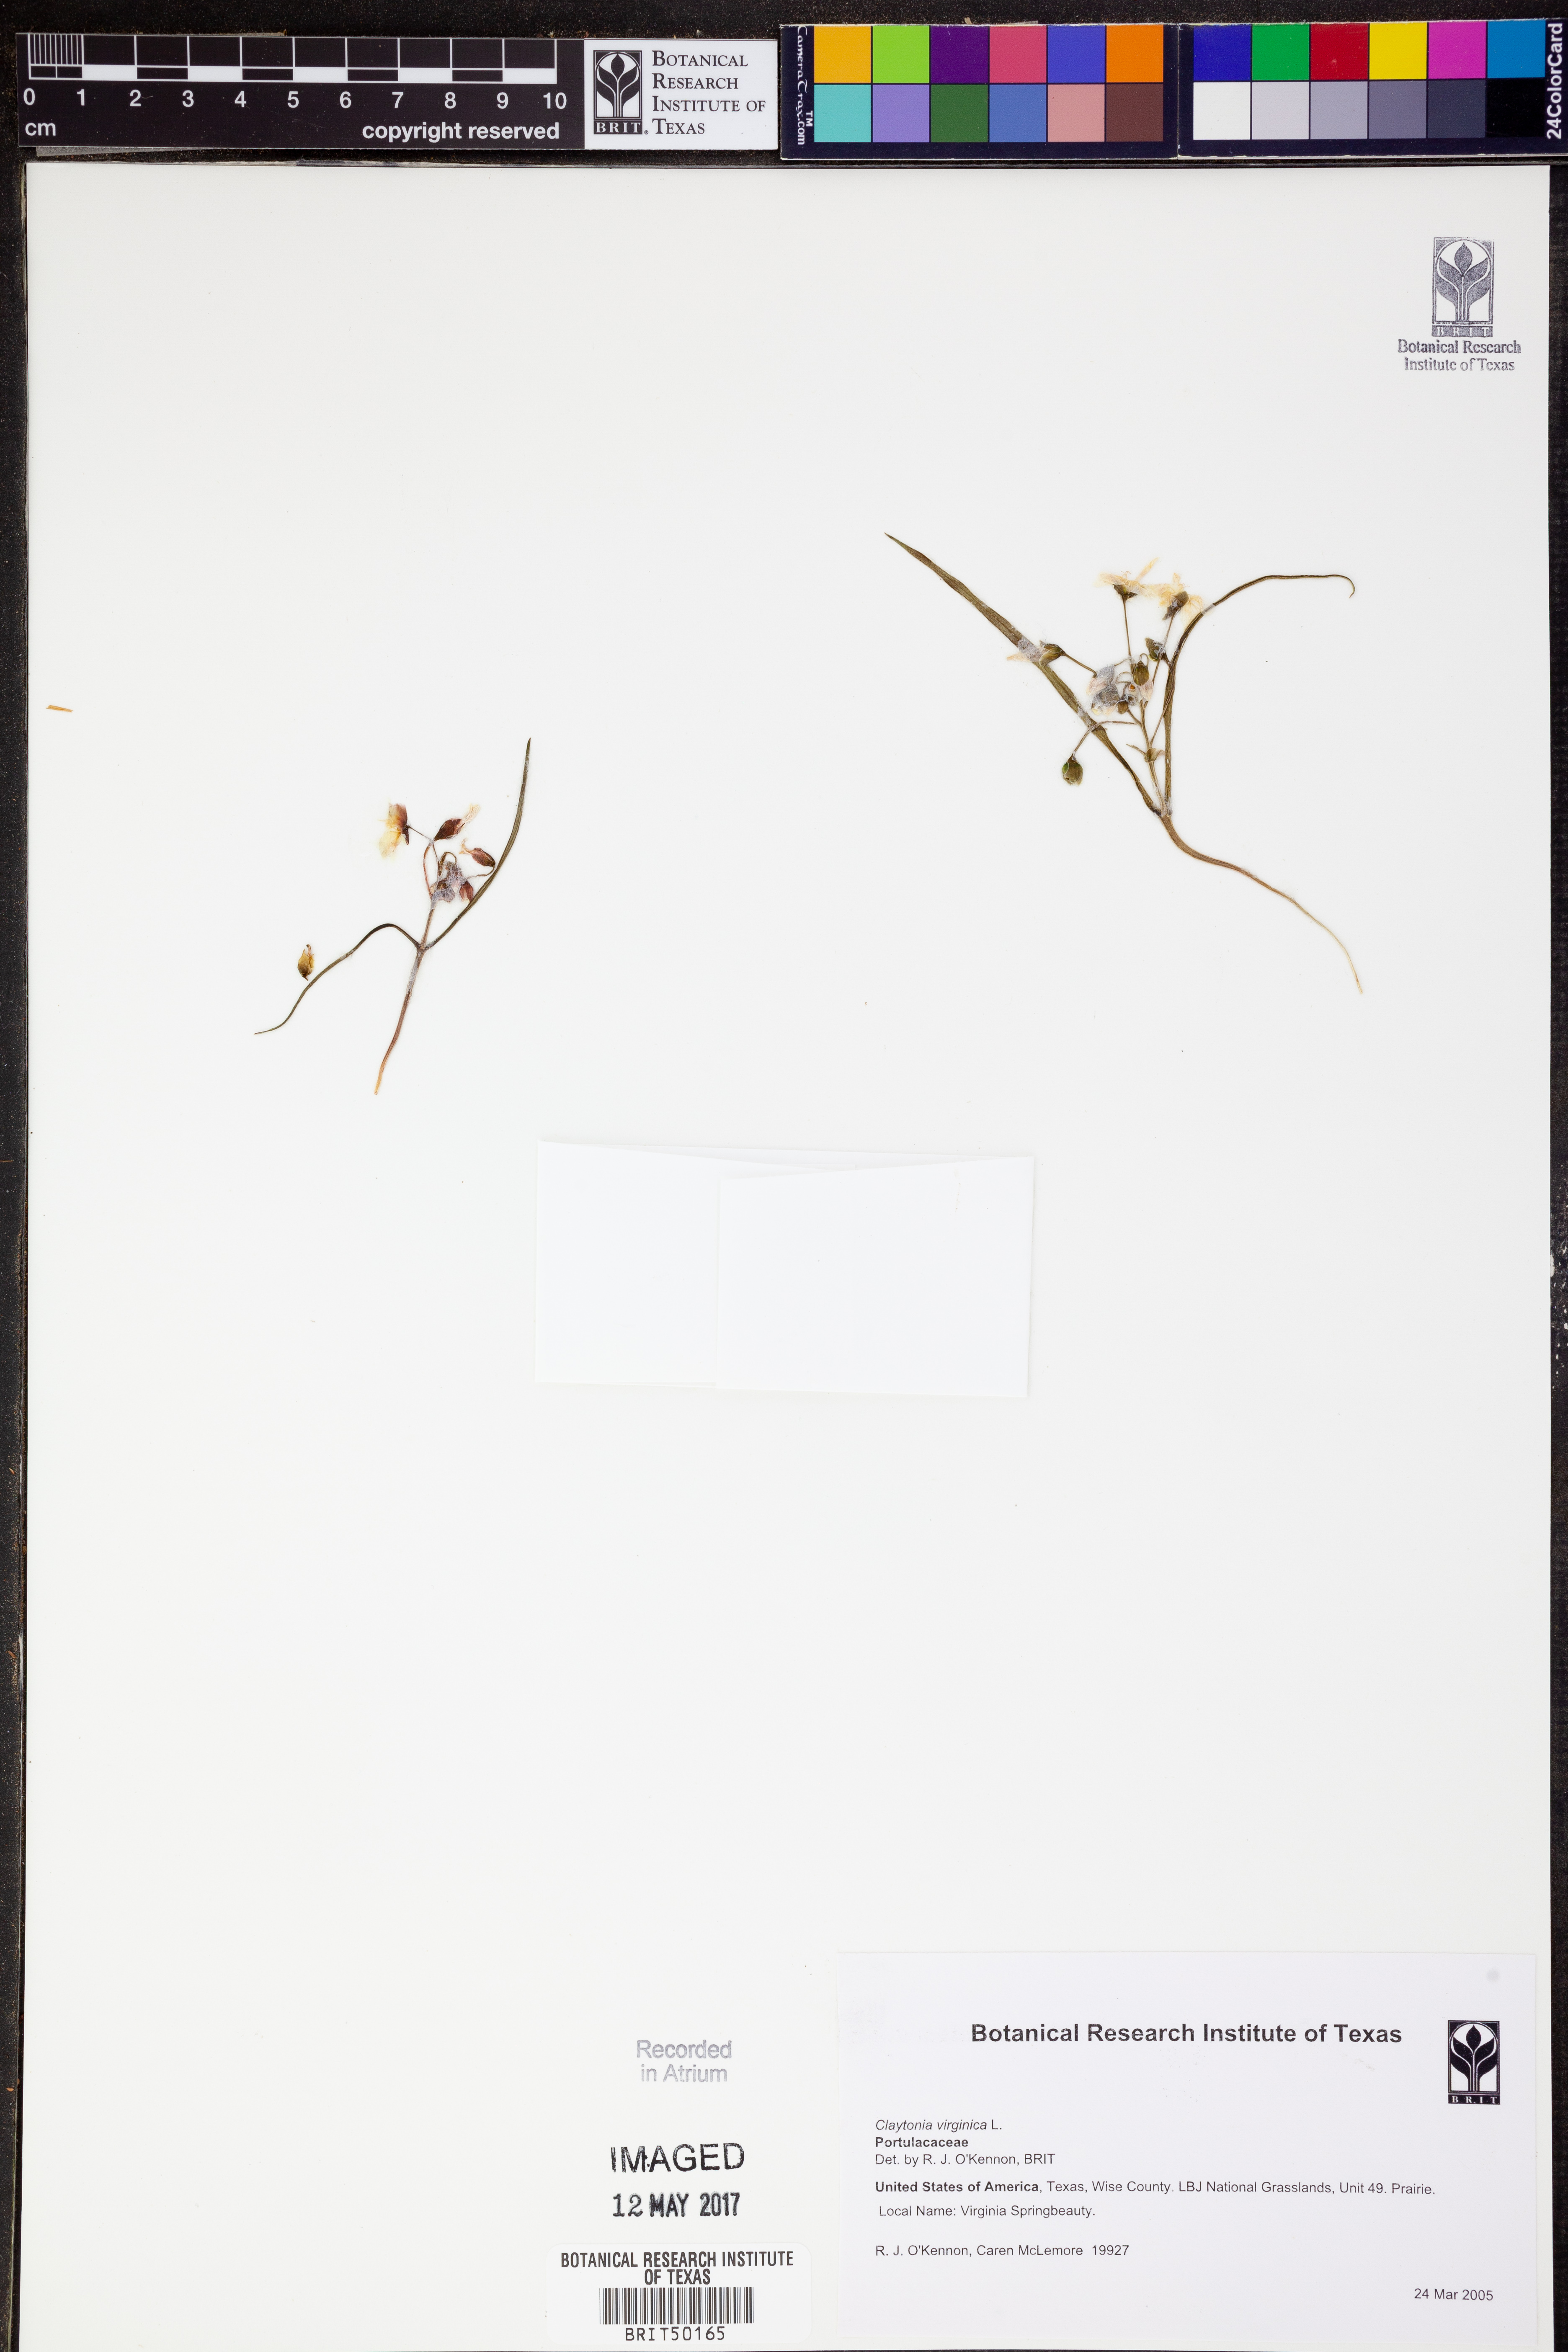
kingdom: Plantae
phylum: Tracheophyta
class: Magnoliopsida
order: Caryophyllales
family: Montiaceae
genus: Claytonia
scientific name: Claytonia virginica
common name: Virginia springbeauty
